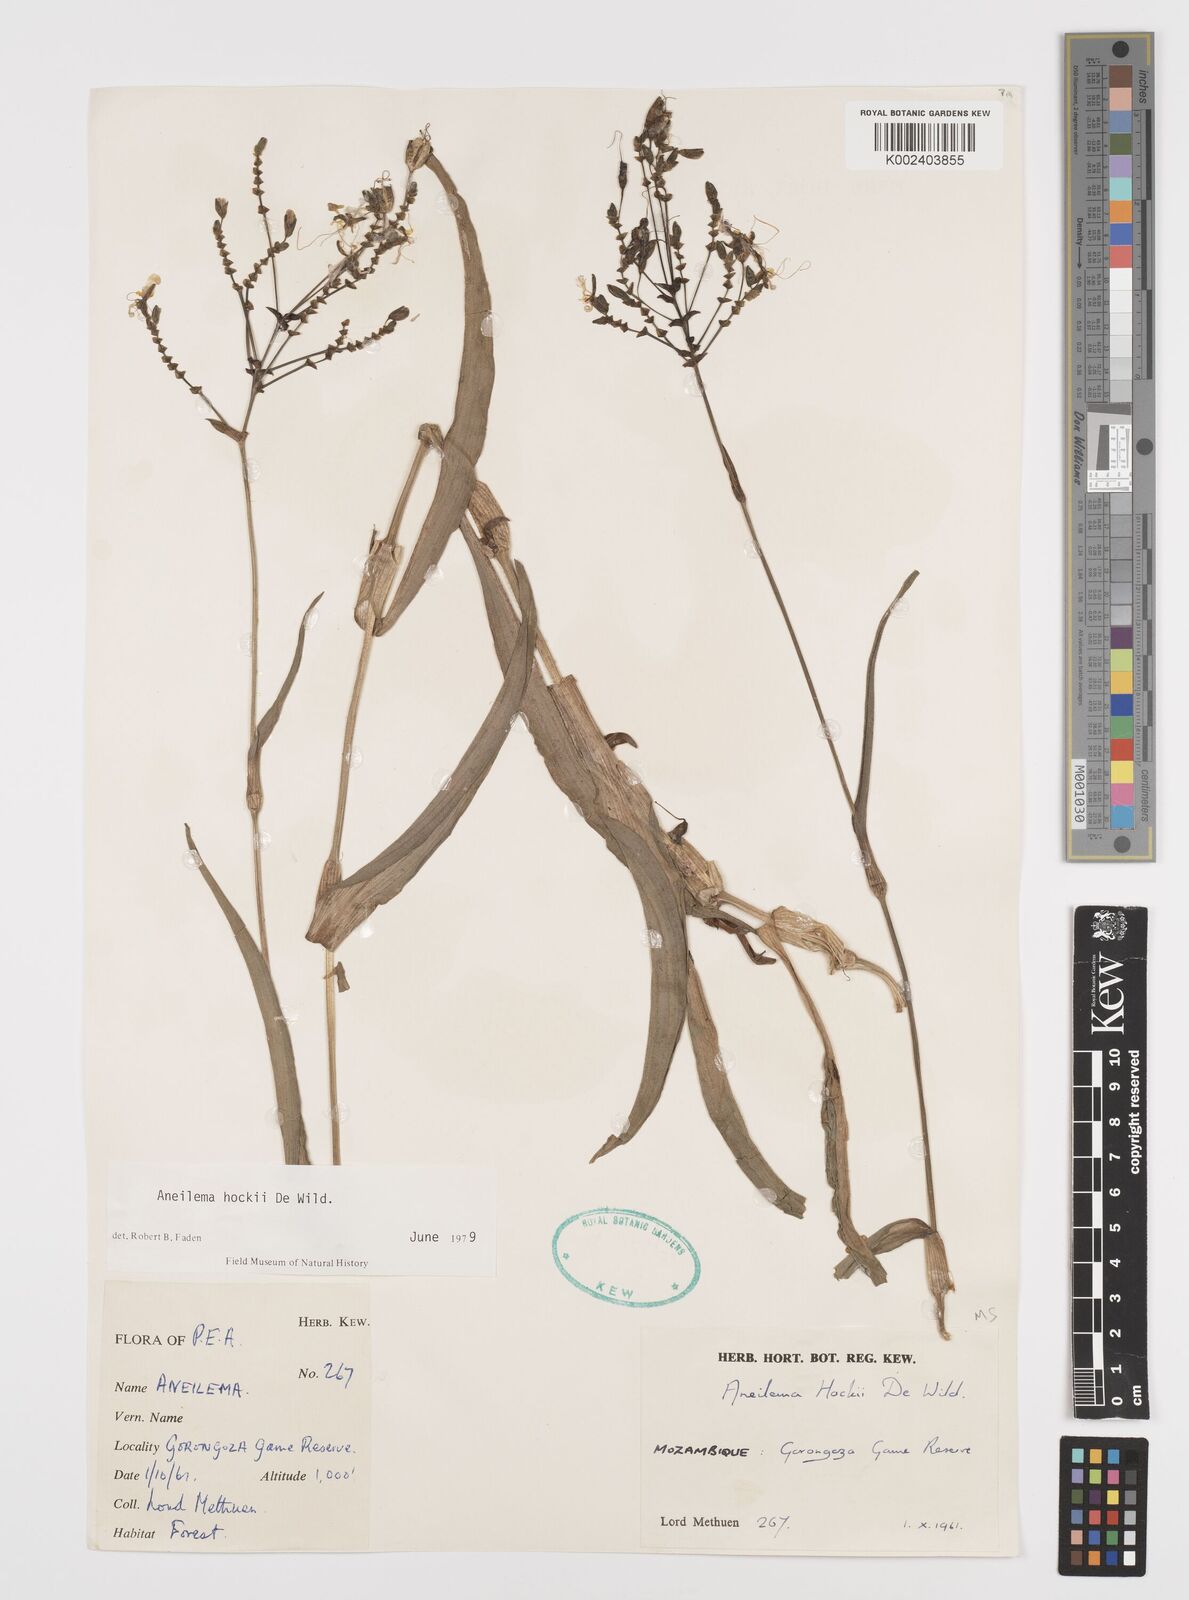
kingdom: Plantae
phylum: Tracheophyta
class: Liliopsida
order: Commelinales
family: Commelinaceae
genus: Aneilema
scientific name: Aneilema hockii
